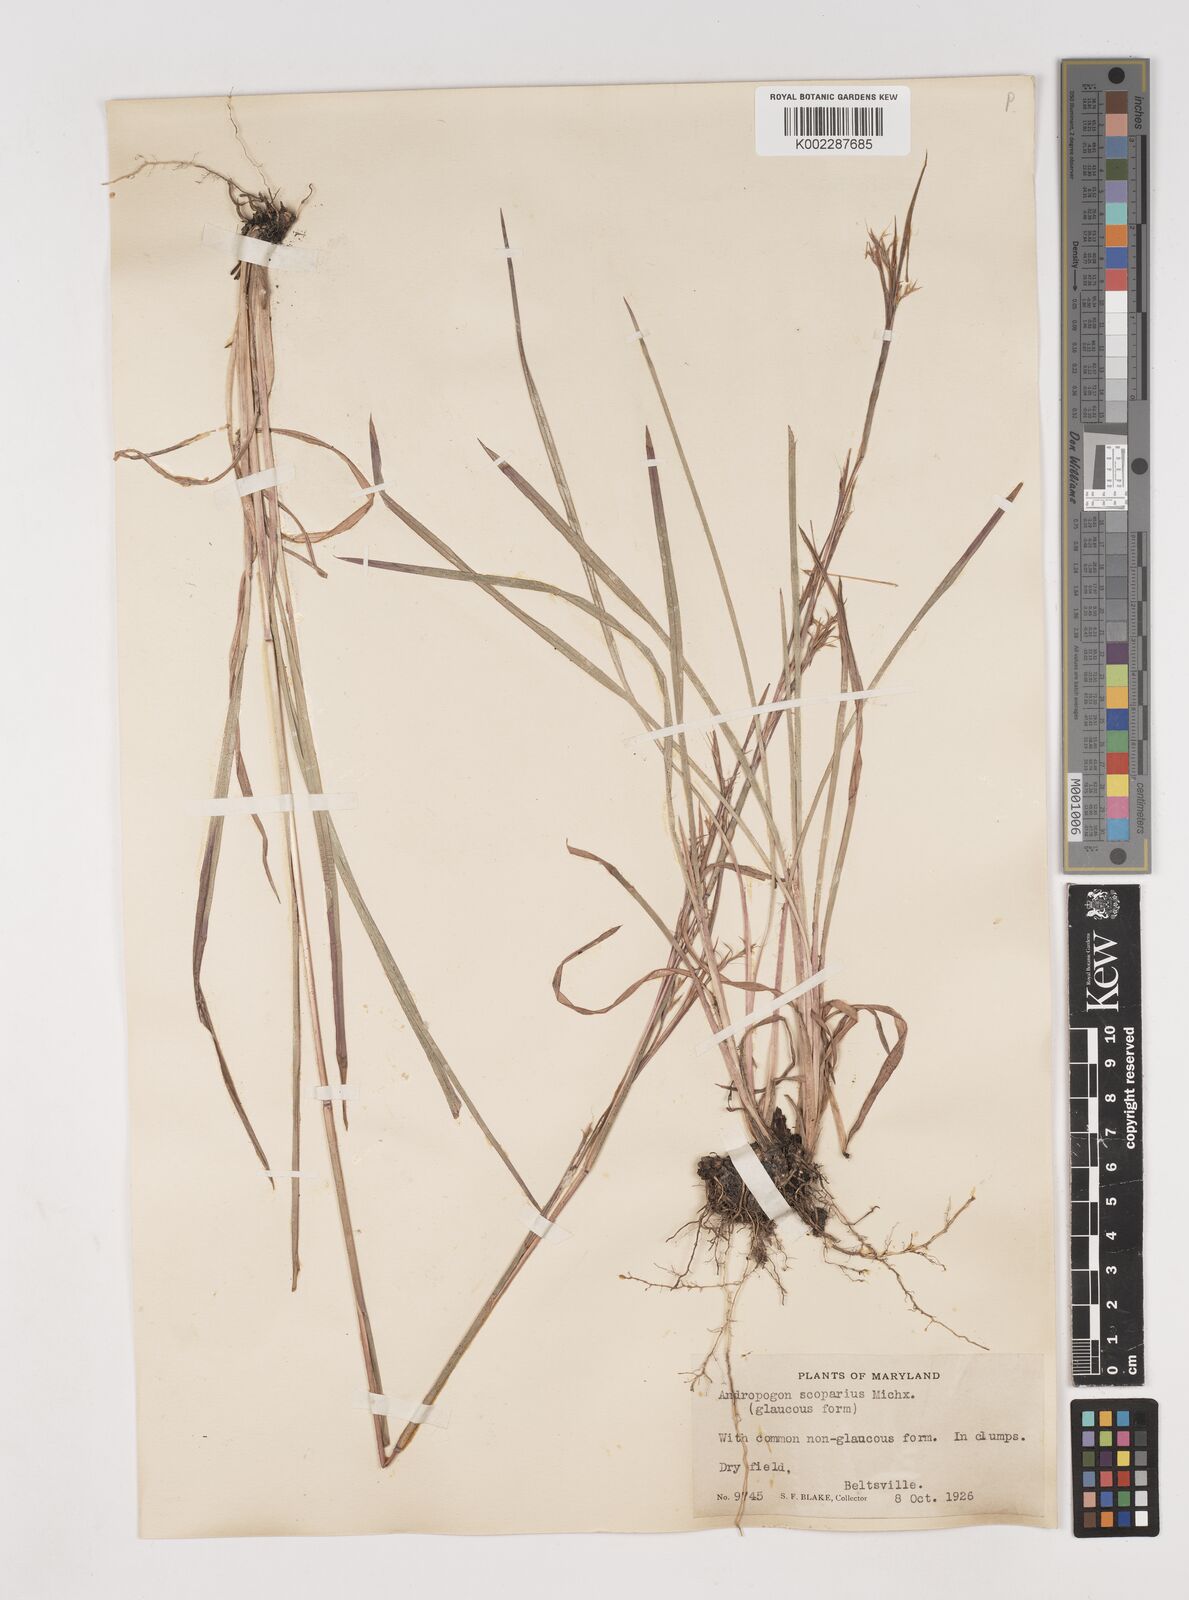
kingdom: Plantae
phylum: Tracheophyta
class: Liliopsida
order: Poales
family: Poaceae
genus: Schizachyrium
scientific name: Schizachyrium scoparium
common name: Little bluestem
